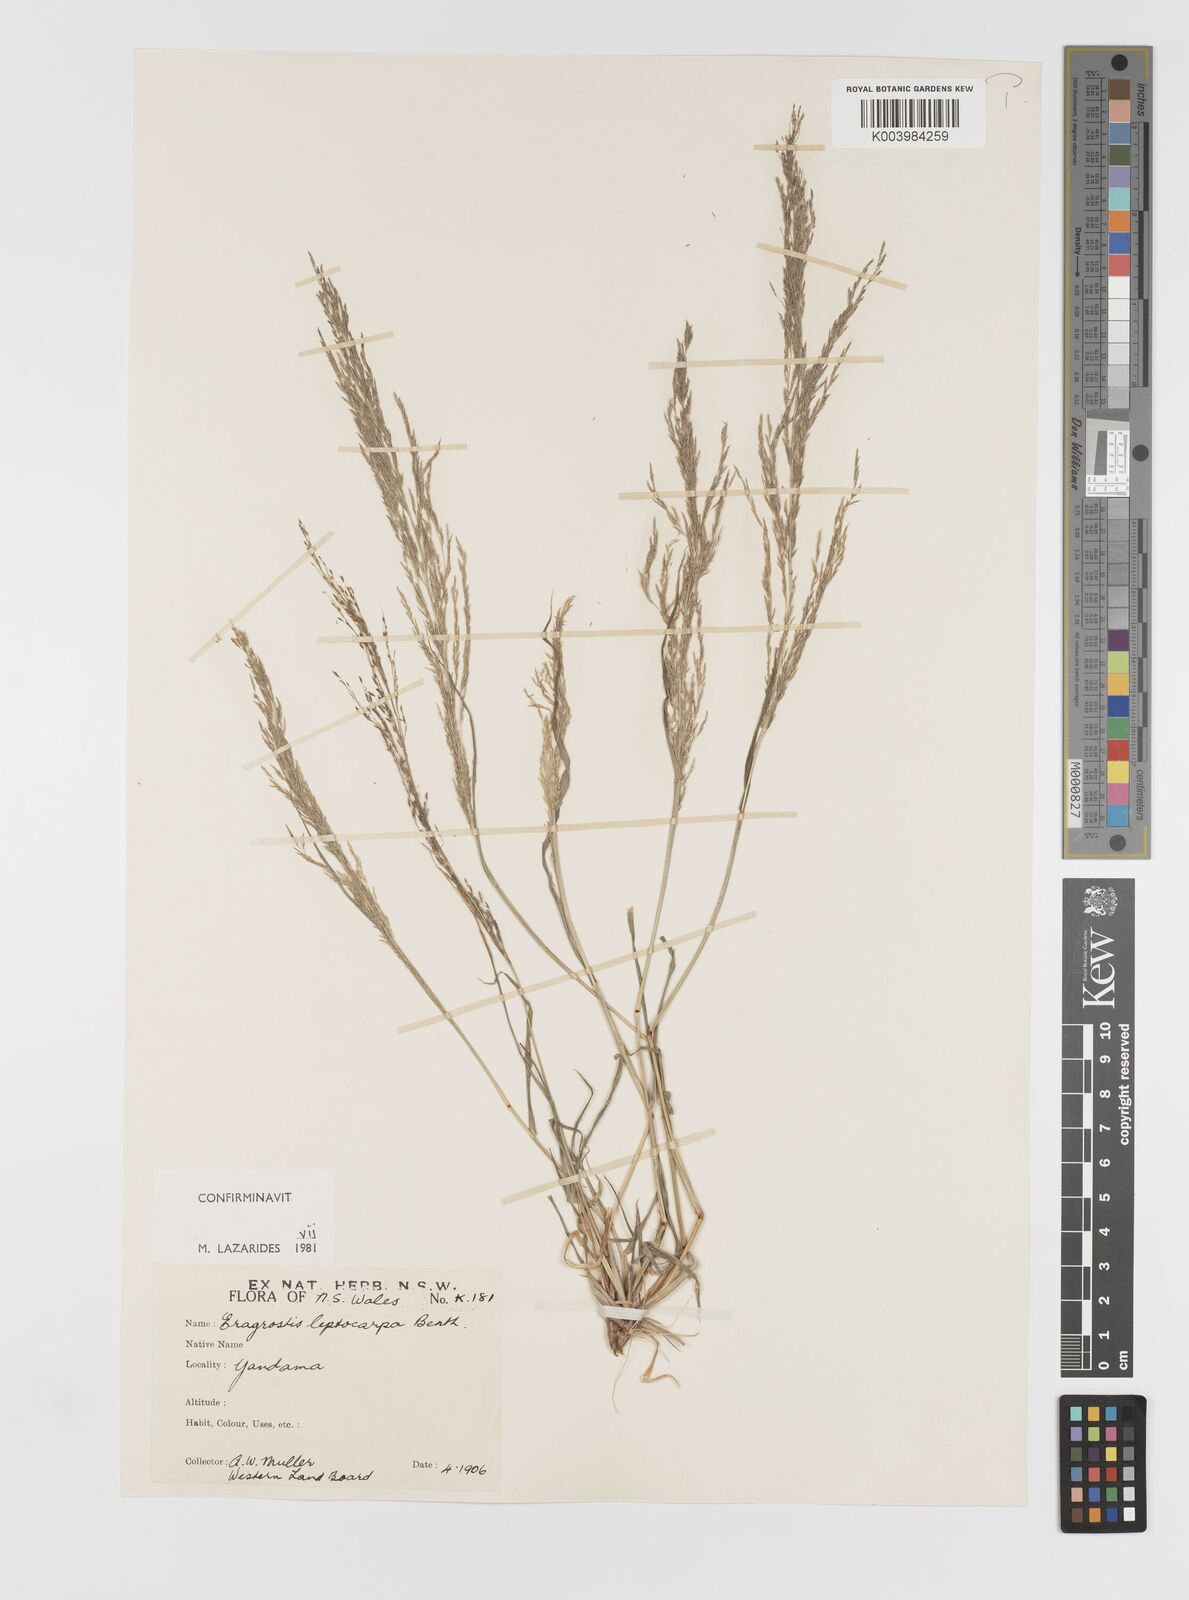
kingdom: Plantae
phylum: Tracheophyta
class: Liliopsida
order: Poales
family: Poaceae
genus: Eragrostis
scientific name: Eragrostis leptocarpa
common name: Drooping love grass
